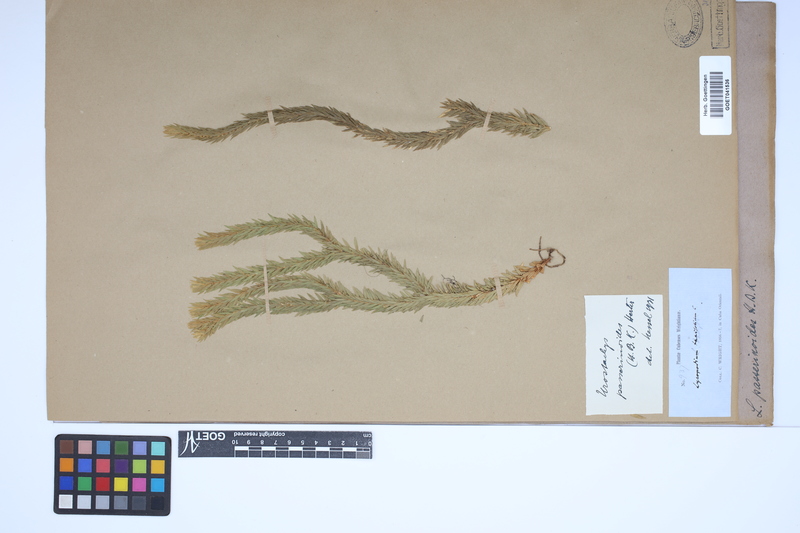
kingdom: Plantae
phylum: Tracheophyta
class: Lycopodiopsida
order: Lycopodiales
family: Lycopodiaceae
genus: Phlegmariurus
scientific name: Phlegmariurus taxifolius
